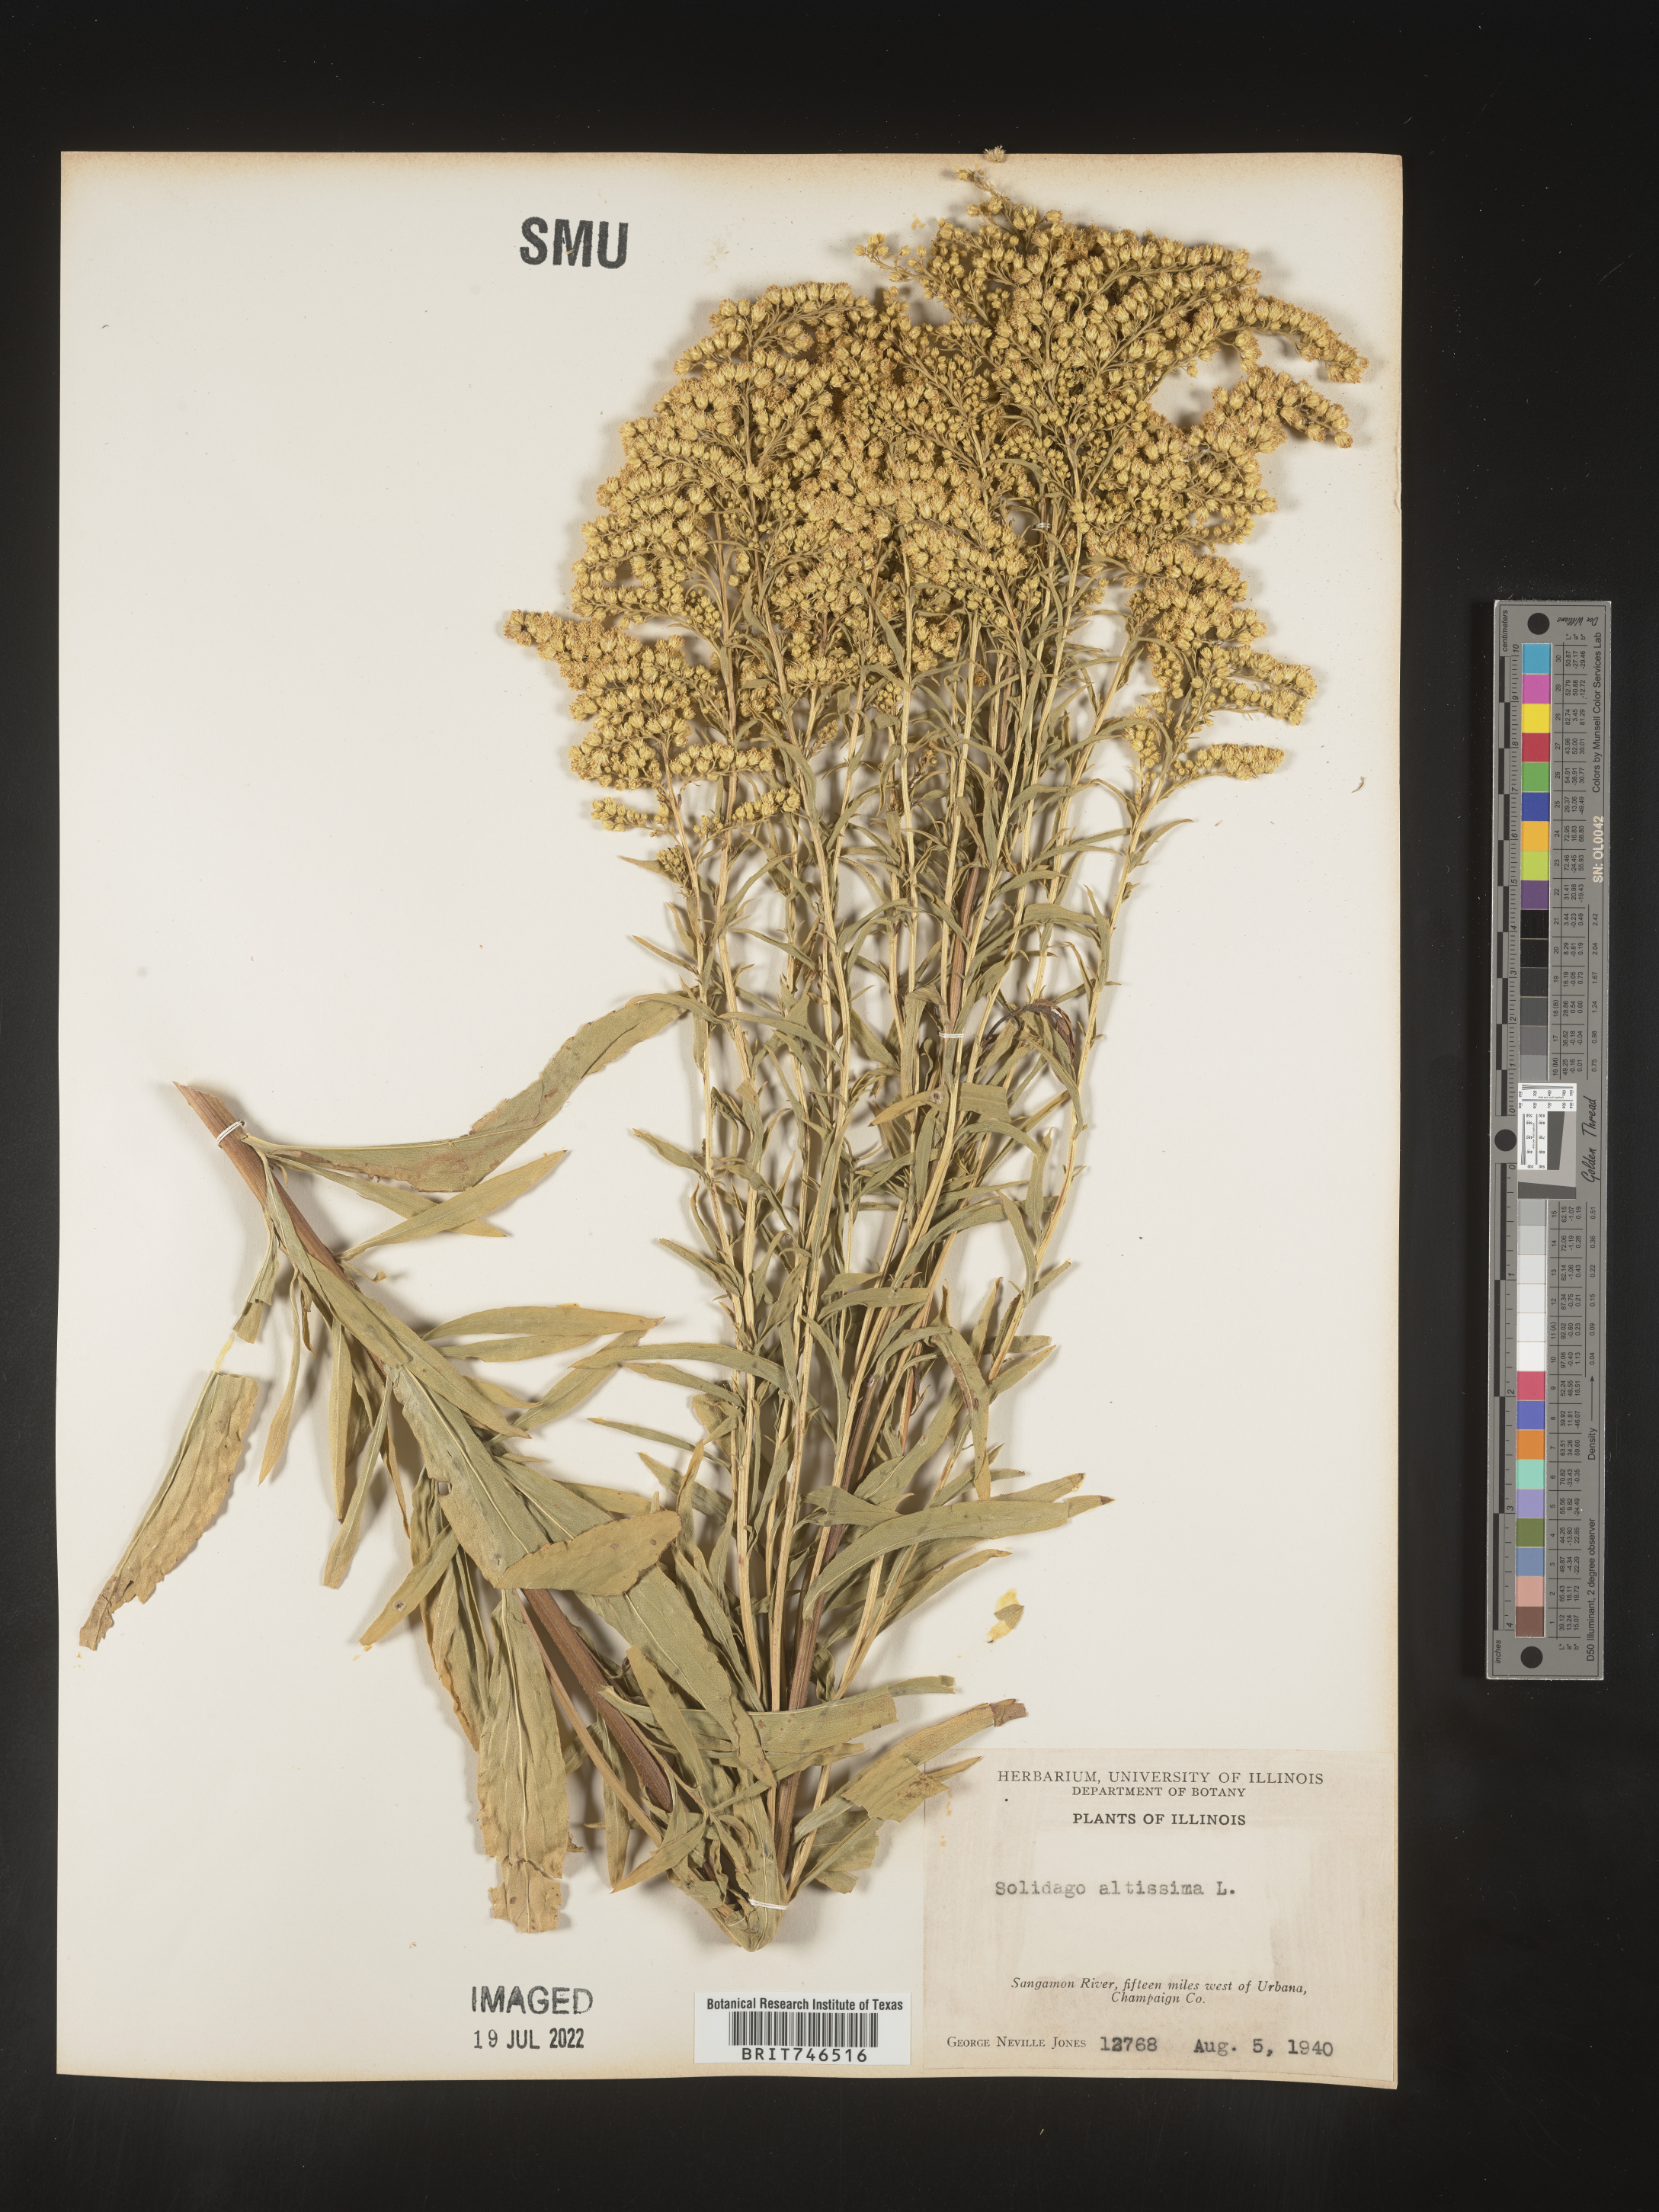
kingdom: Plantae
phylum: Tracheophyta
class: Magnoliopsida
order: Asterales
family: Asteraceae
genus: Solidago
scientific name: Solidago gigantea
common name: Giant goldenrod
